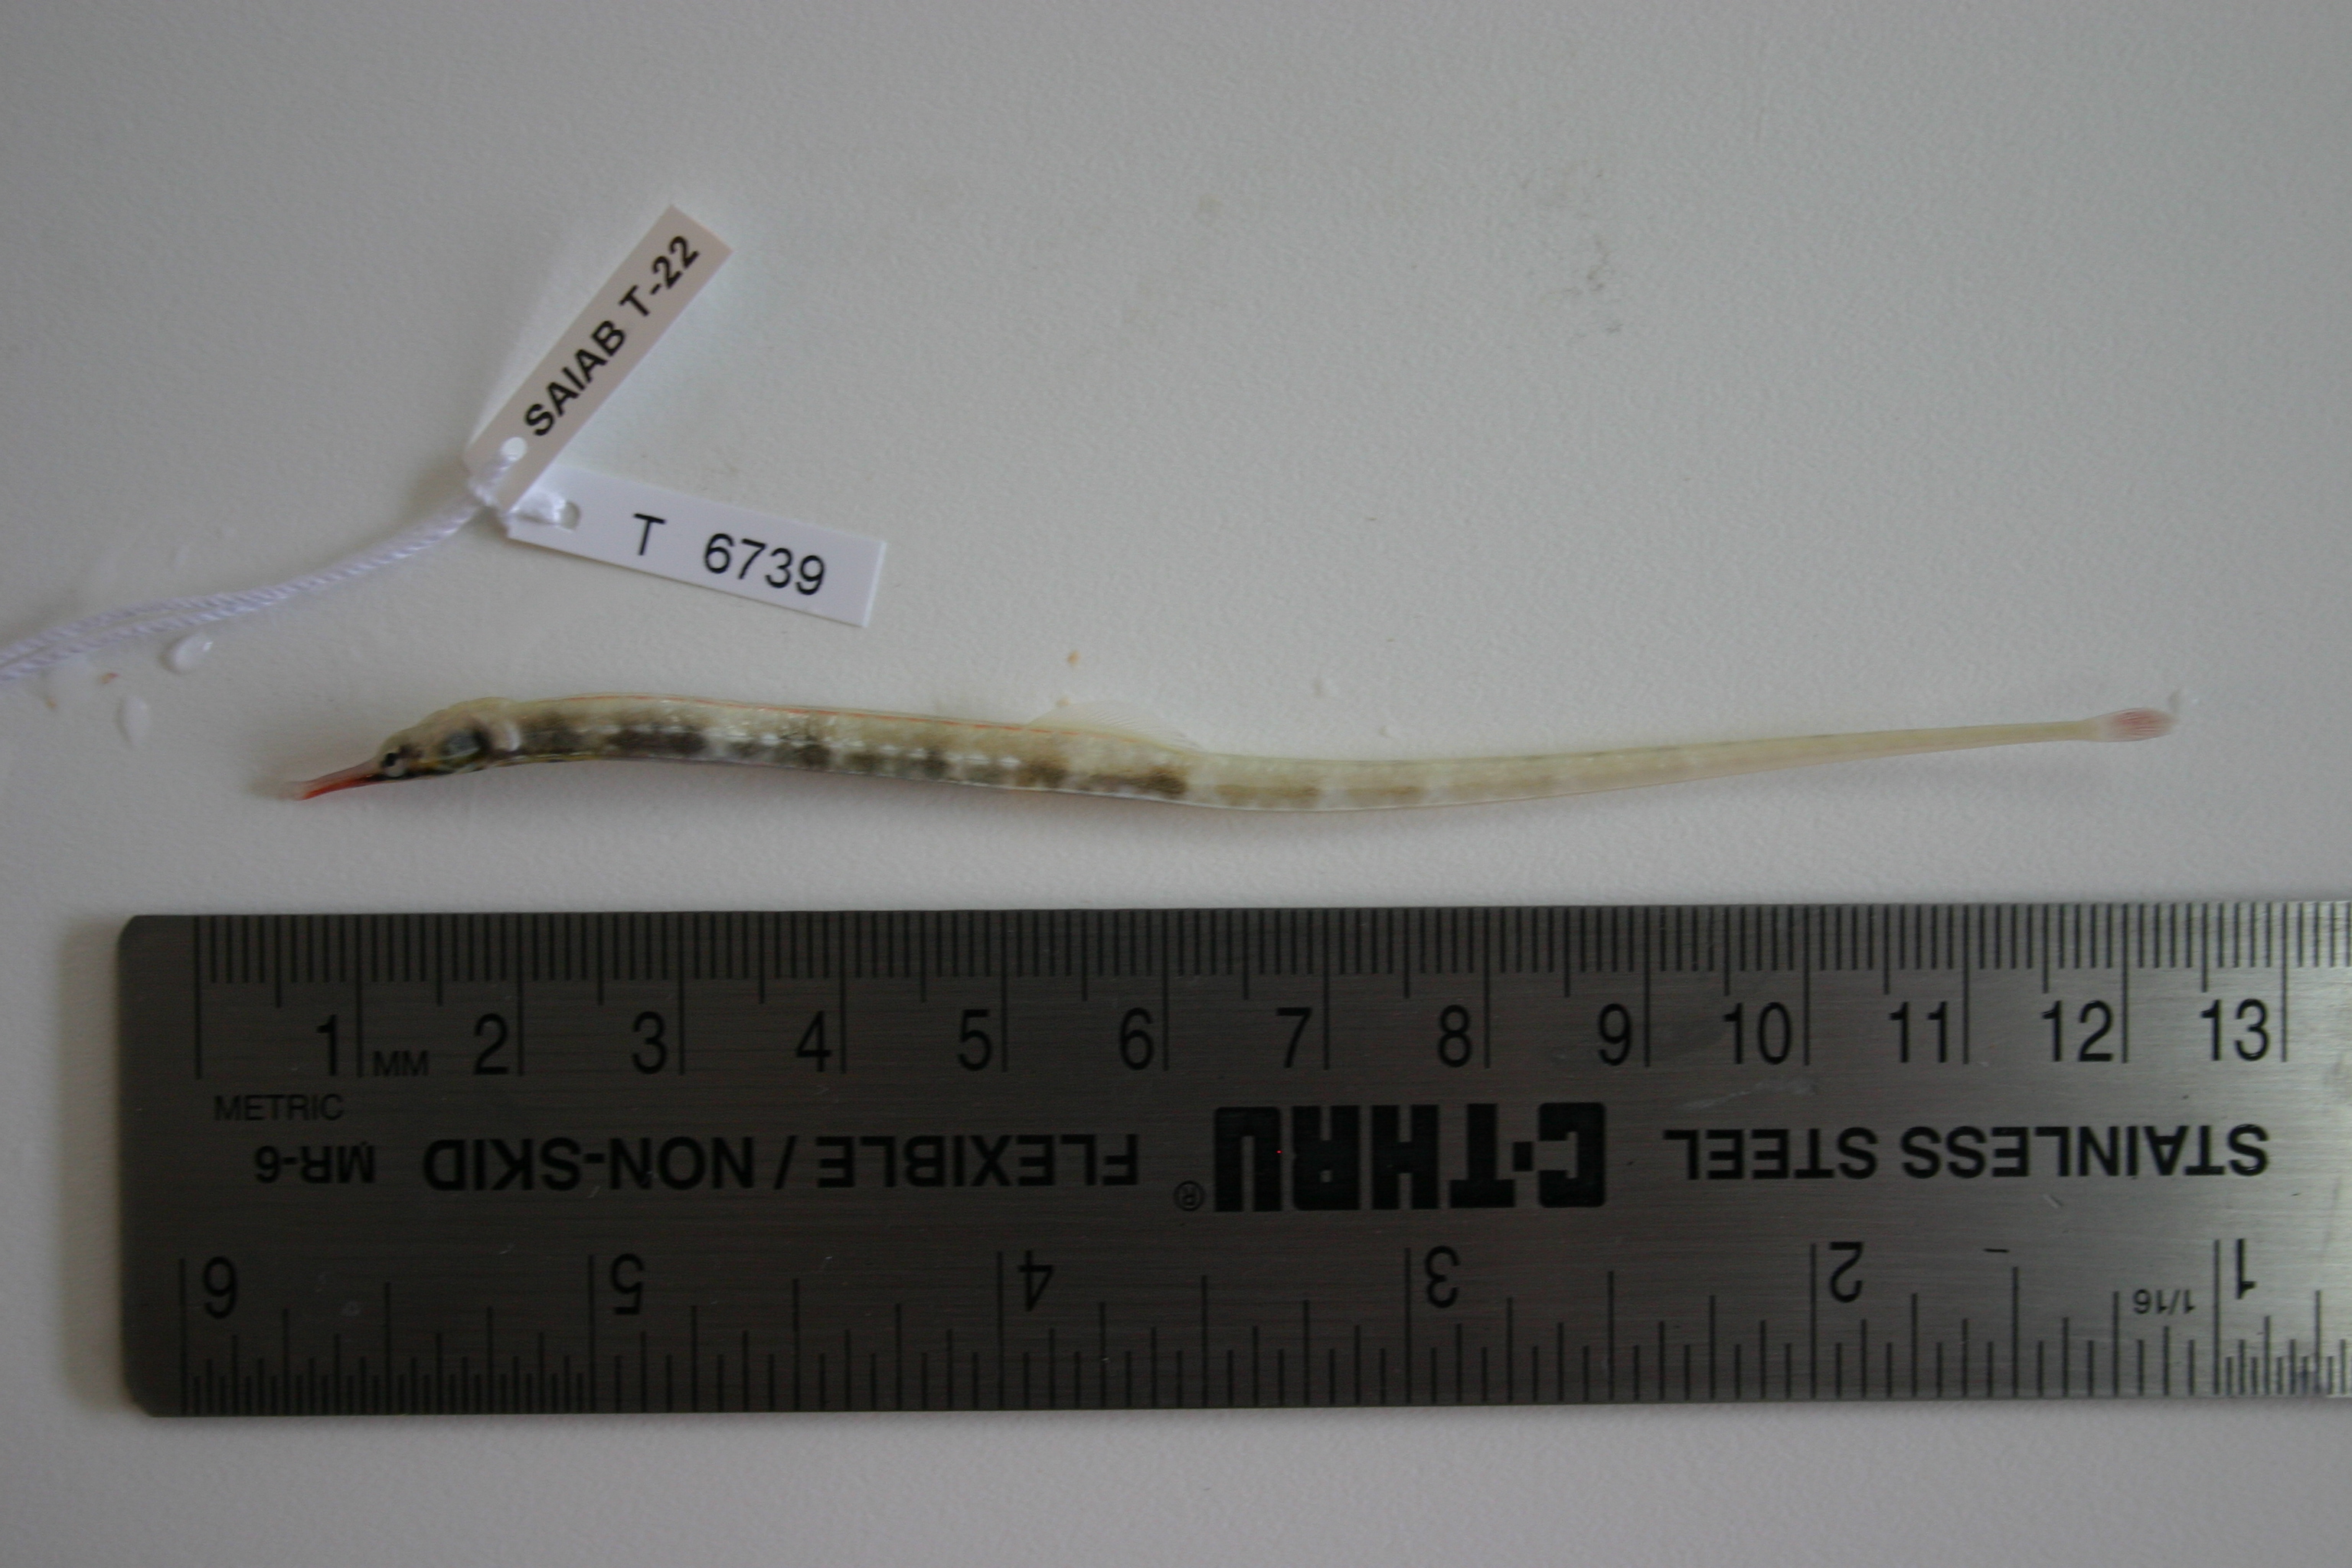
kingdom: Animalia
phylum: Chordata
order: Syngnathiformes
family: Syngnathidae
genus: Corythoichthys
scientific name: Corythoichthys
